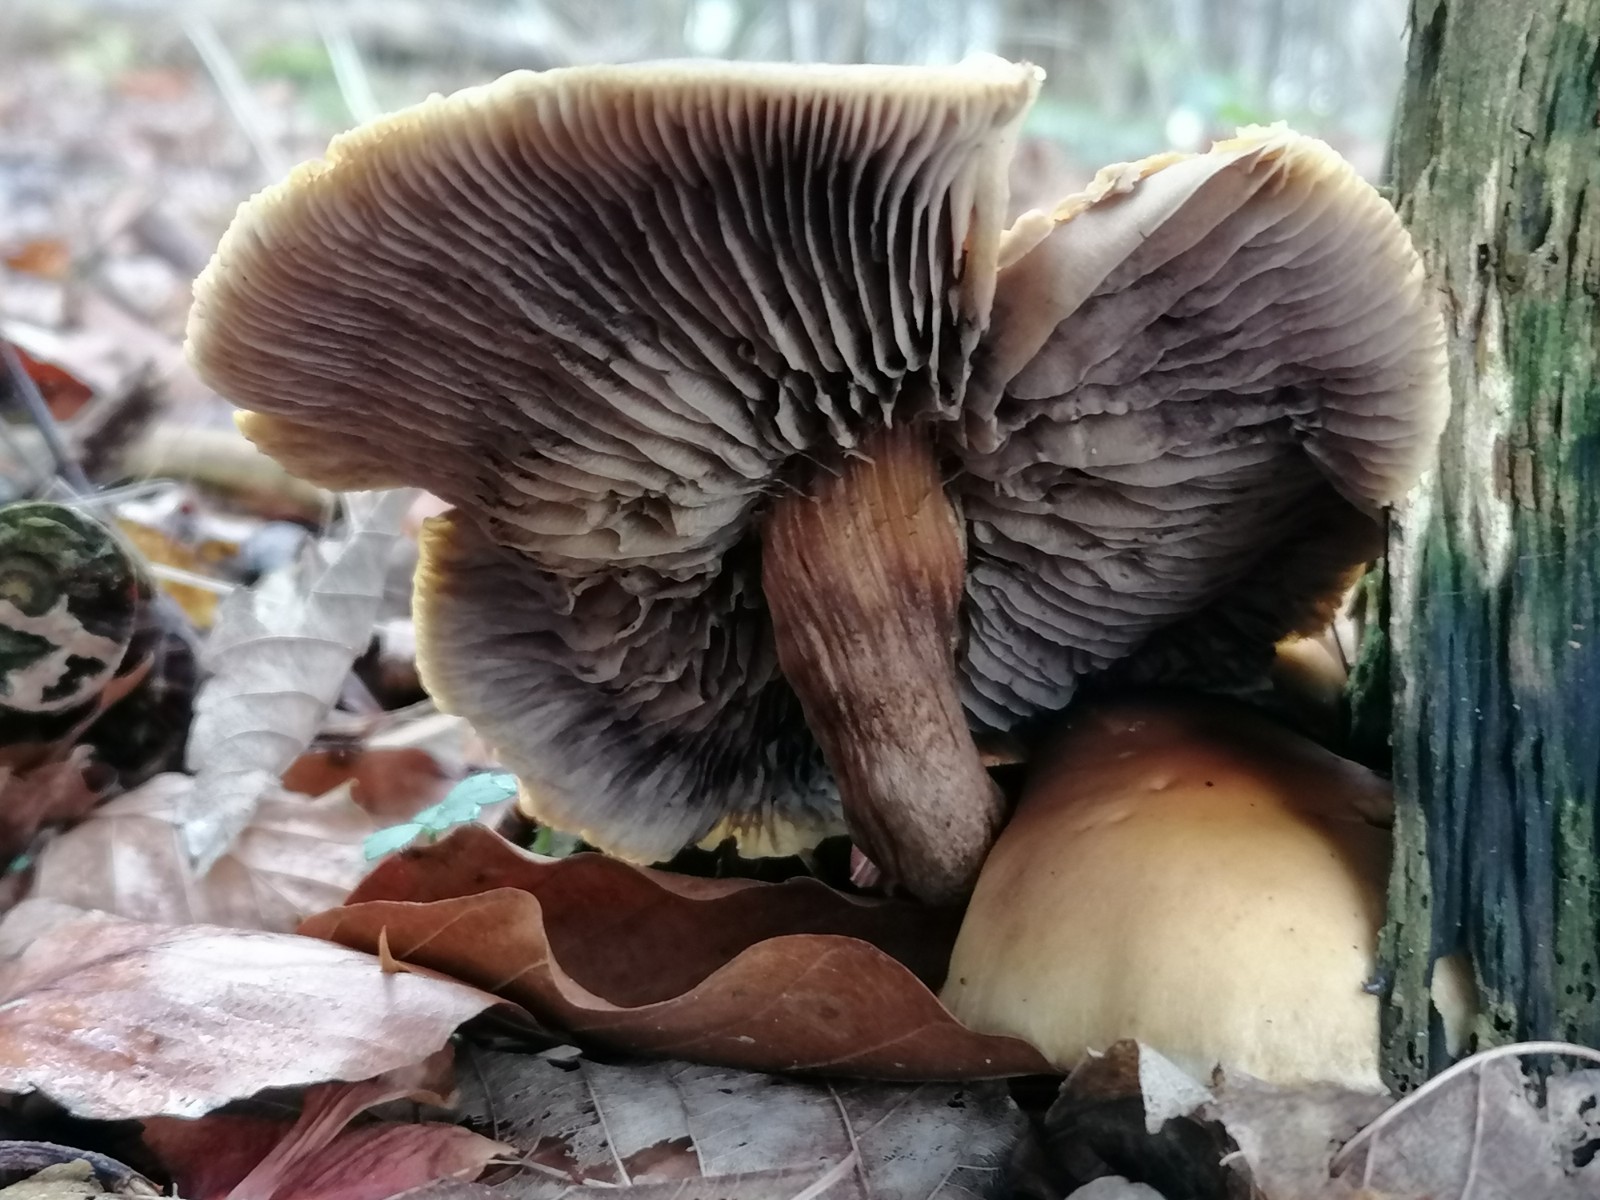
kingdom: Fungi
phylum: Basidiomycota
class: Agaricomycetes
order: Agaricales
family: Strophariaceae
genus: Hypholoma
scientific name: Hypholoma capnoides
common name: gran-svovlhat
